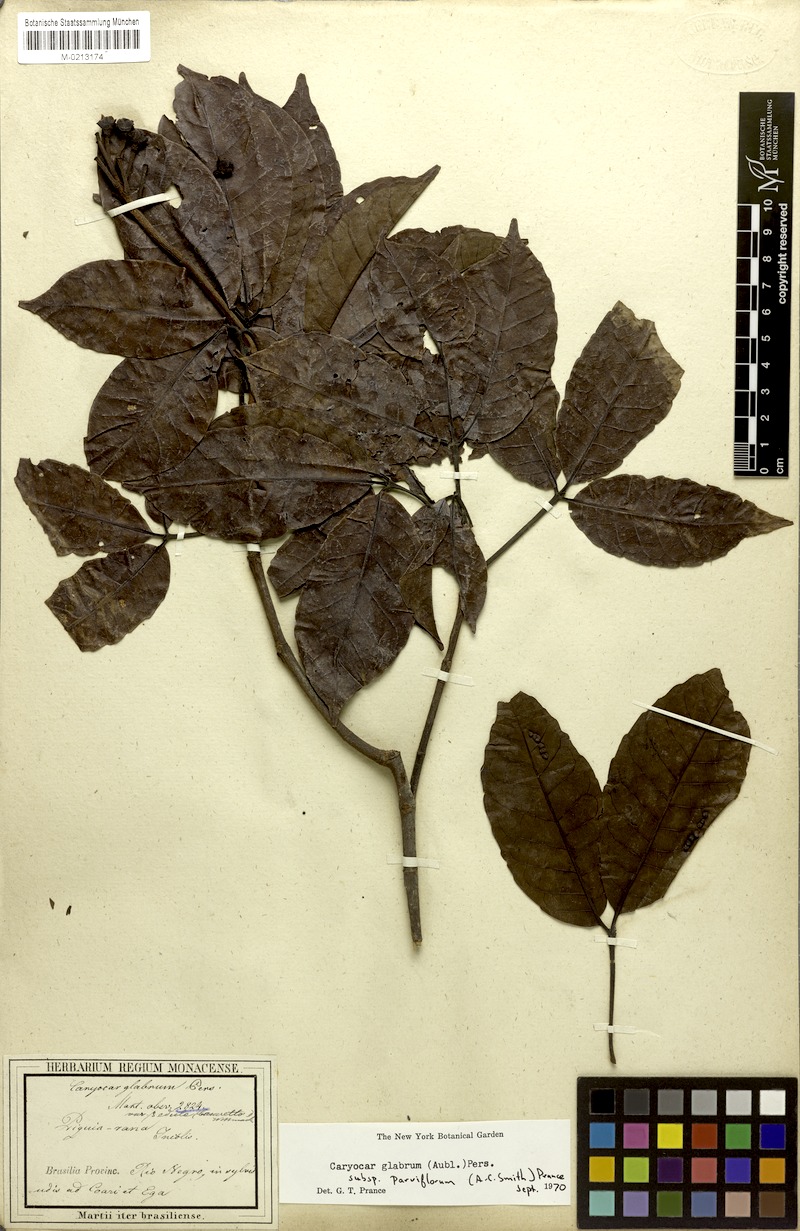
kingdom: Plantae
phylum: Tracheophyta
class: Magnoliopsida
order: Malpighiales
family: Caryocaraceae
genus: Caryocar
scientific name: Caryocar glabrum
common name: Bat's souari
